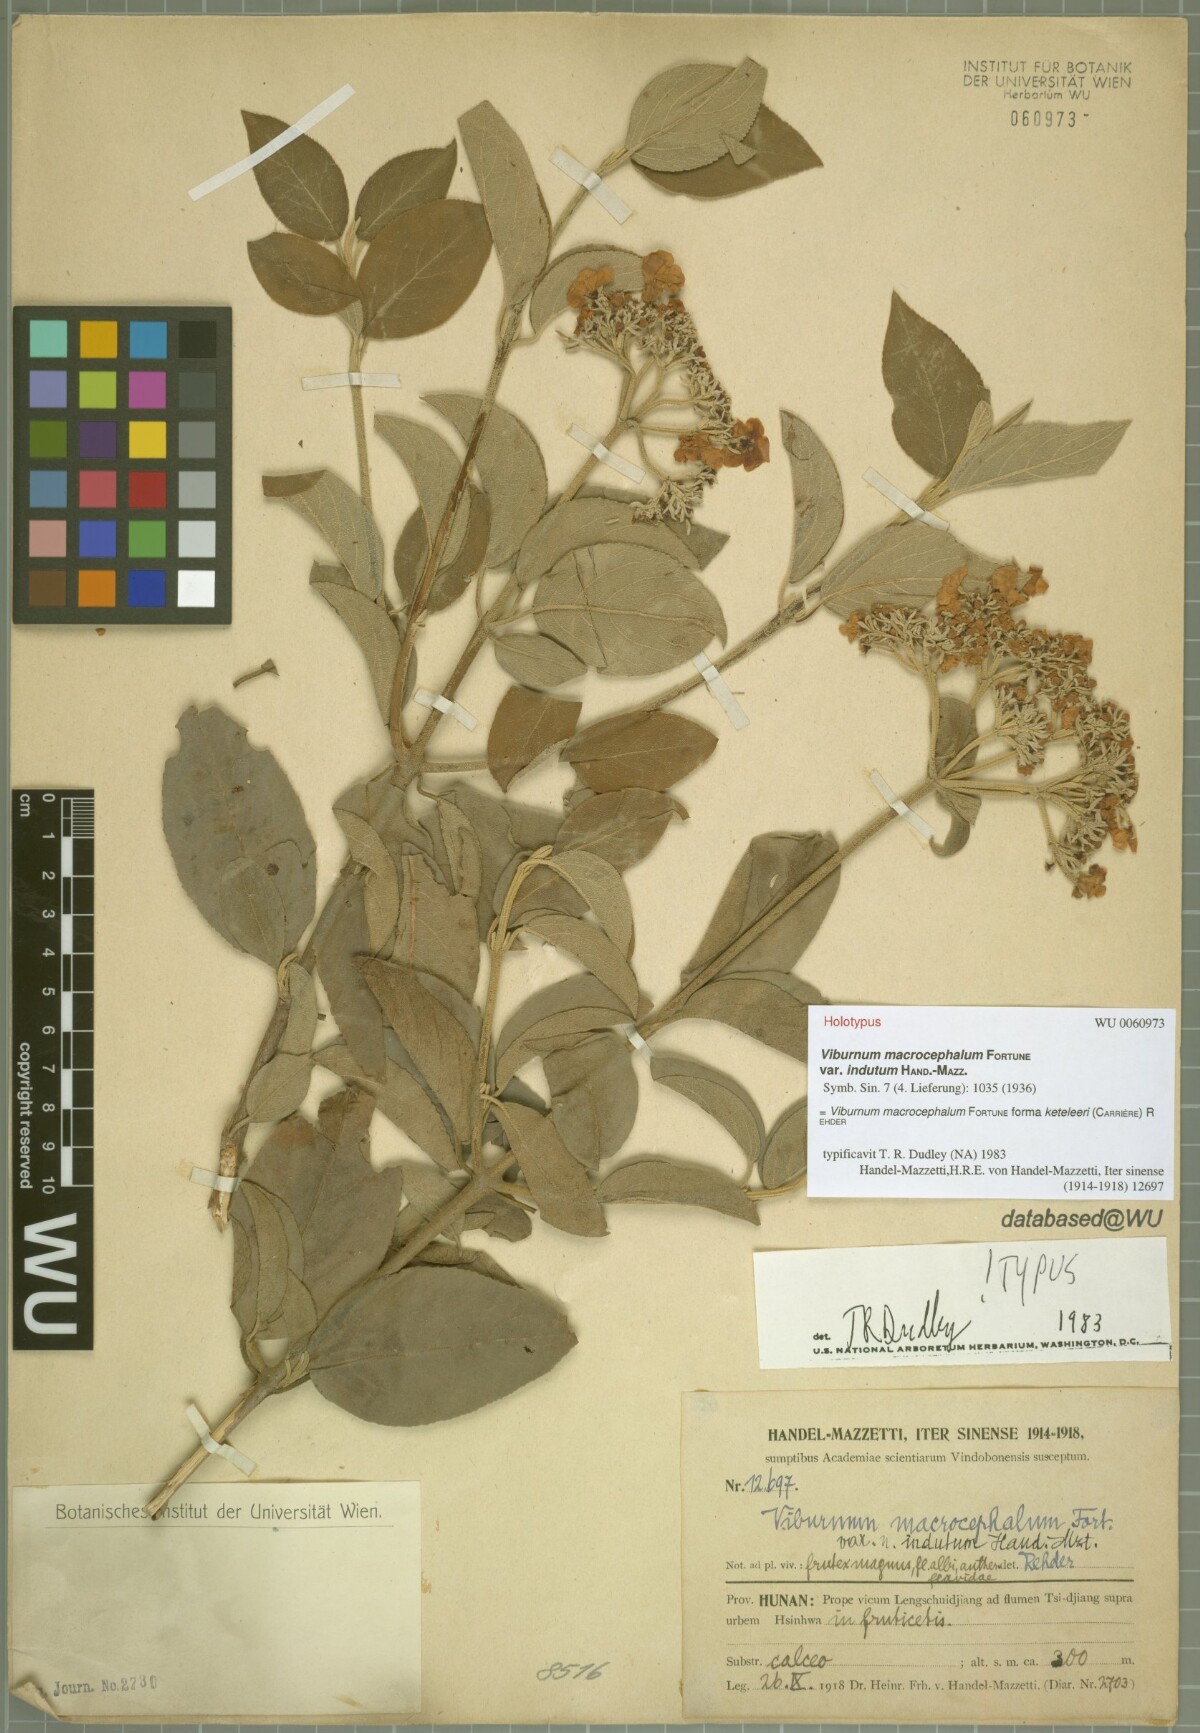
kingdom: Plantae
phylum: Tracheophyta
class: Magnoliopsida
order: Dipsacales
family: Viburnaceae
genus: Viburnum
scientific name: Viburnum macrocephalum
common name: Chinese snowball viburnum
